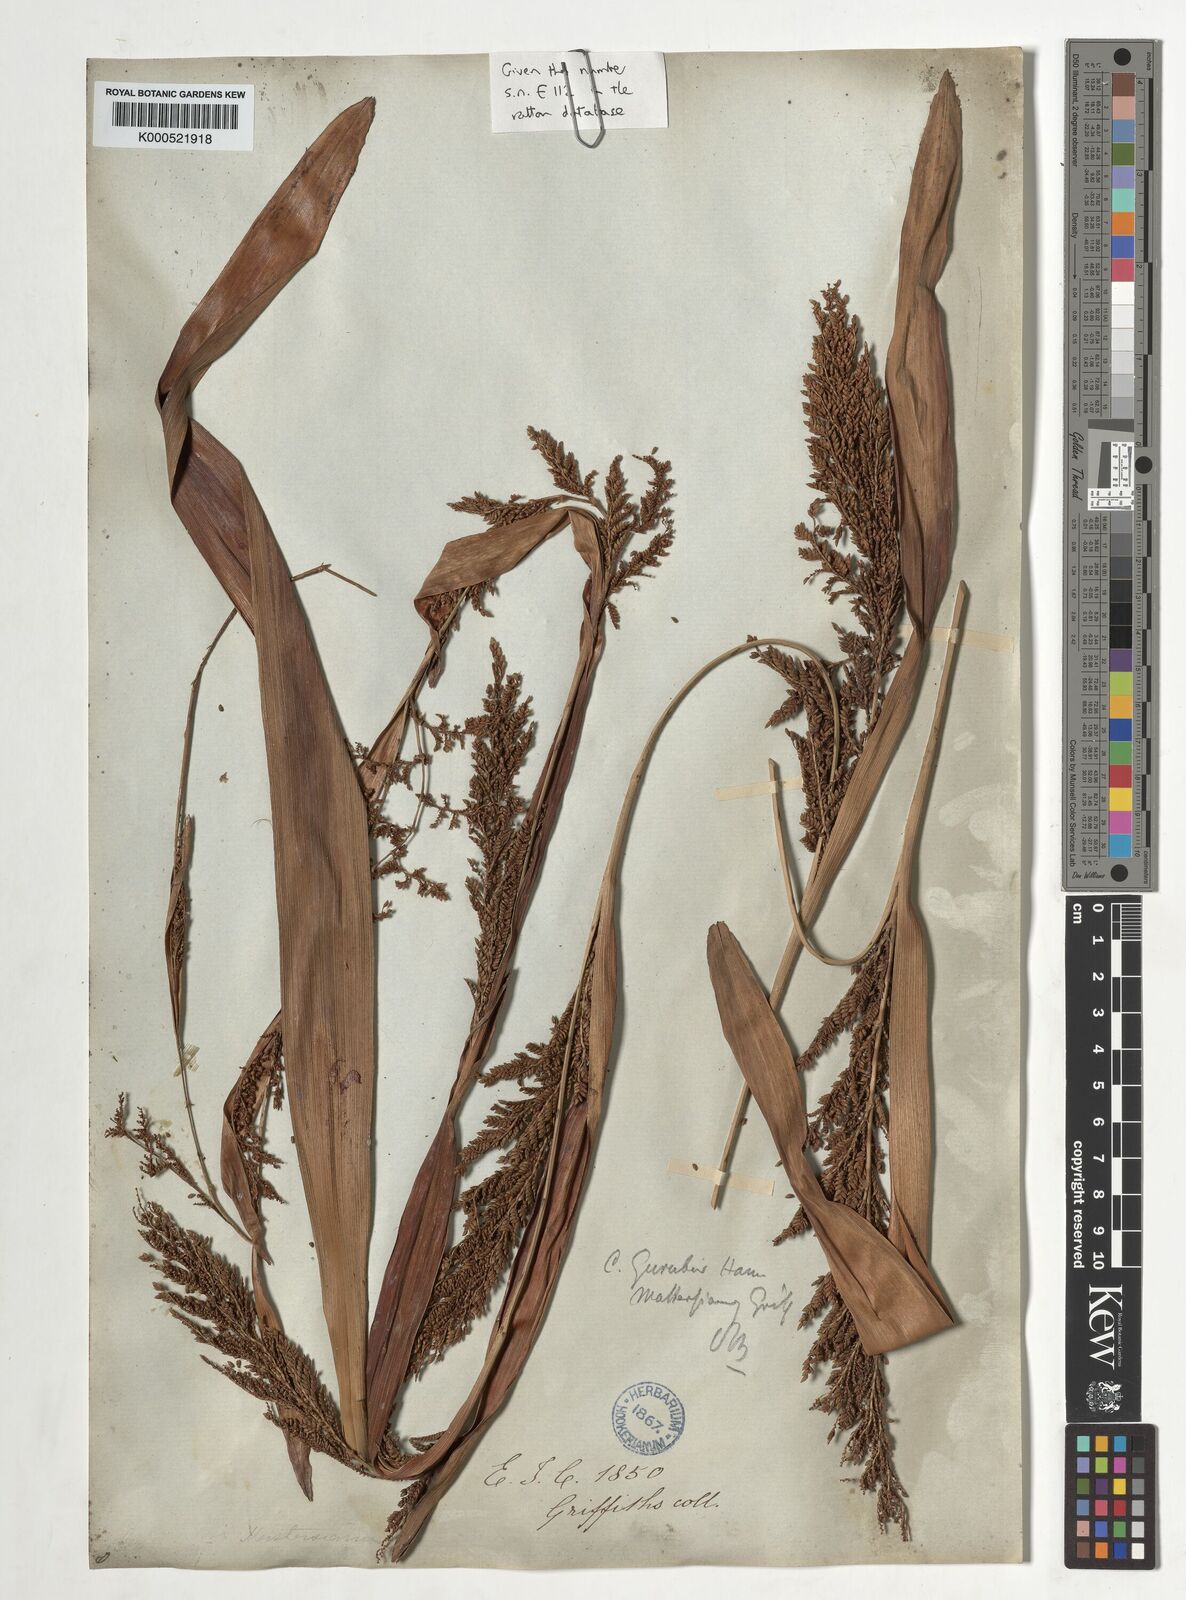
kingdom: Plantae
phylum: Tracheophyta
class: Liliopsida
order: Arecales
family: Arecaceae
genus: Calamus
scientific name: Calamus
